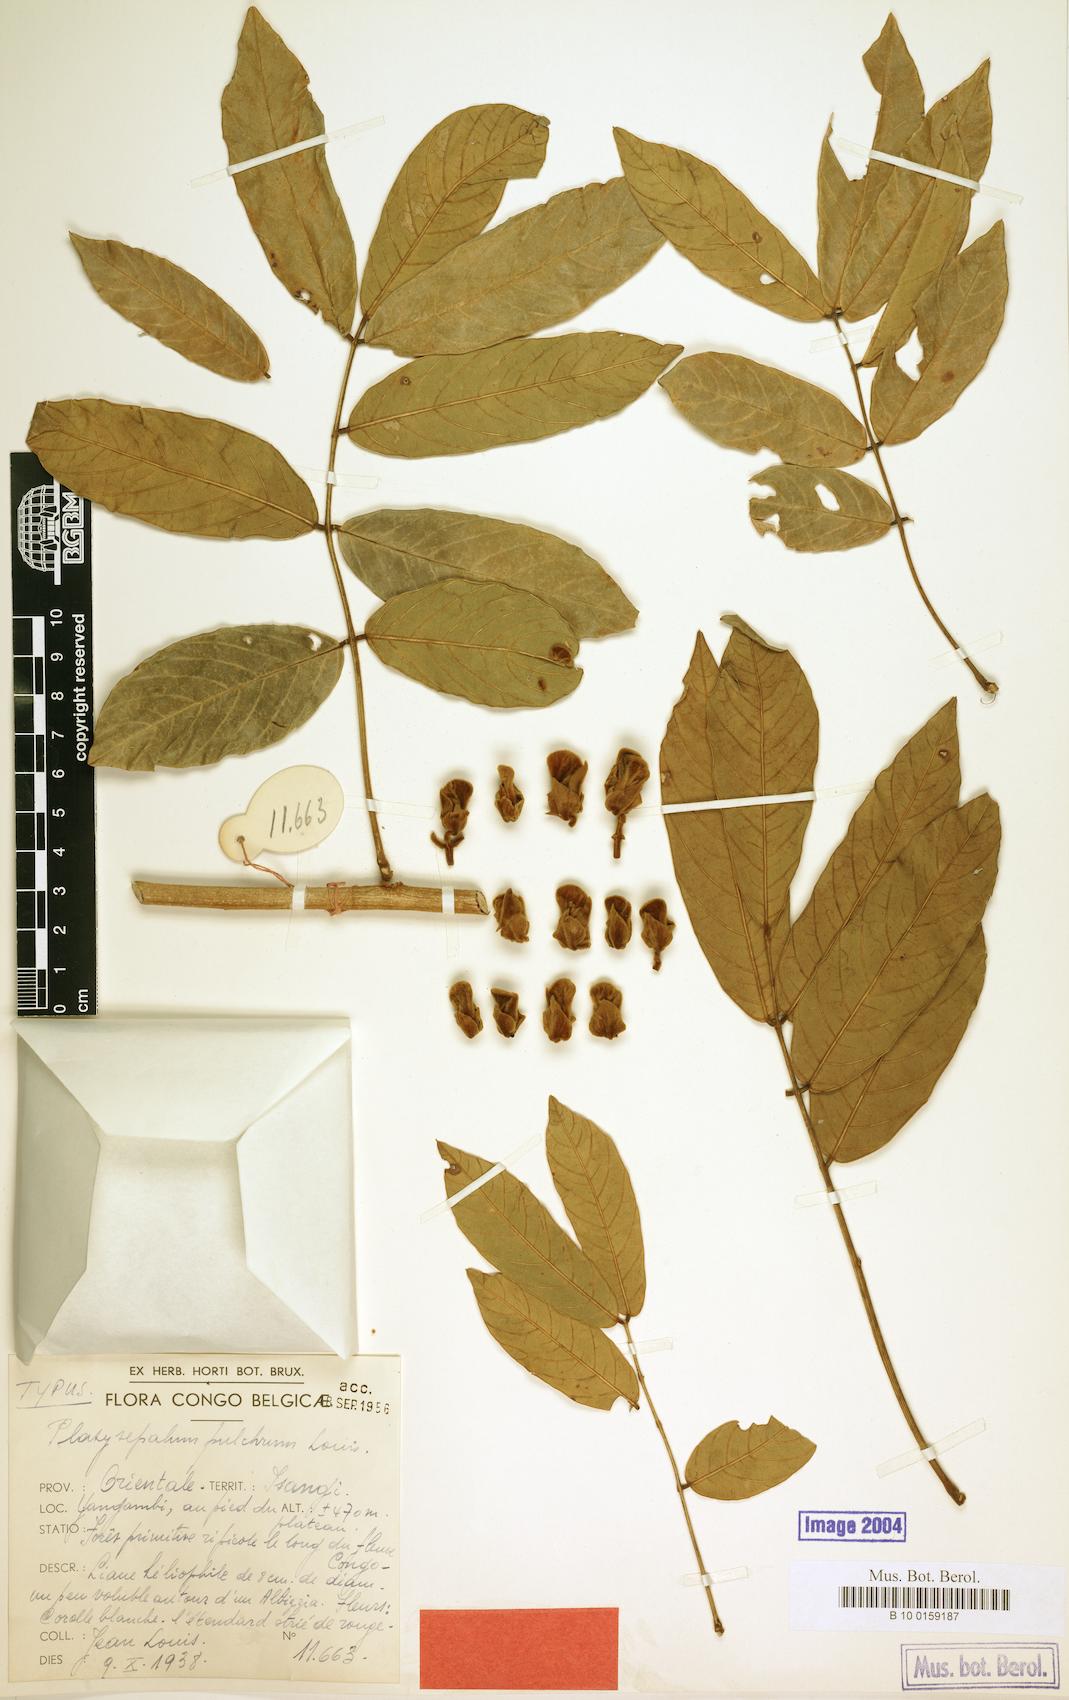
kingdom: Plantae
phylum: Tracheophyta
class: Magnoliopsida
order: Fabales
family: Fabaceae
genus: Platysepalum
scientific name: Platysepalum pulchrum
